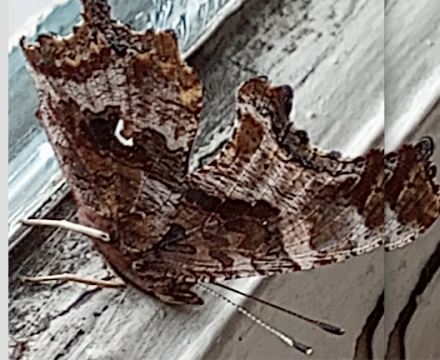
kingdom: Animalia
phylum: Arthropoda
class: Insecta
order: Lepidoptera
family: Nymphalidae
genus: Polygonia
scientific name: Polygonia comma
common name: Eastern Comma
